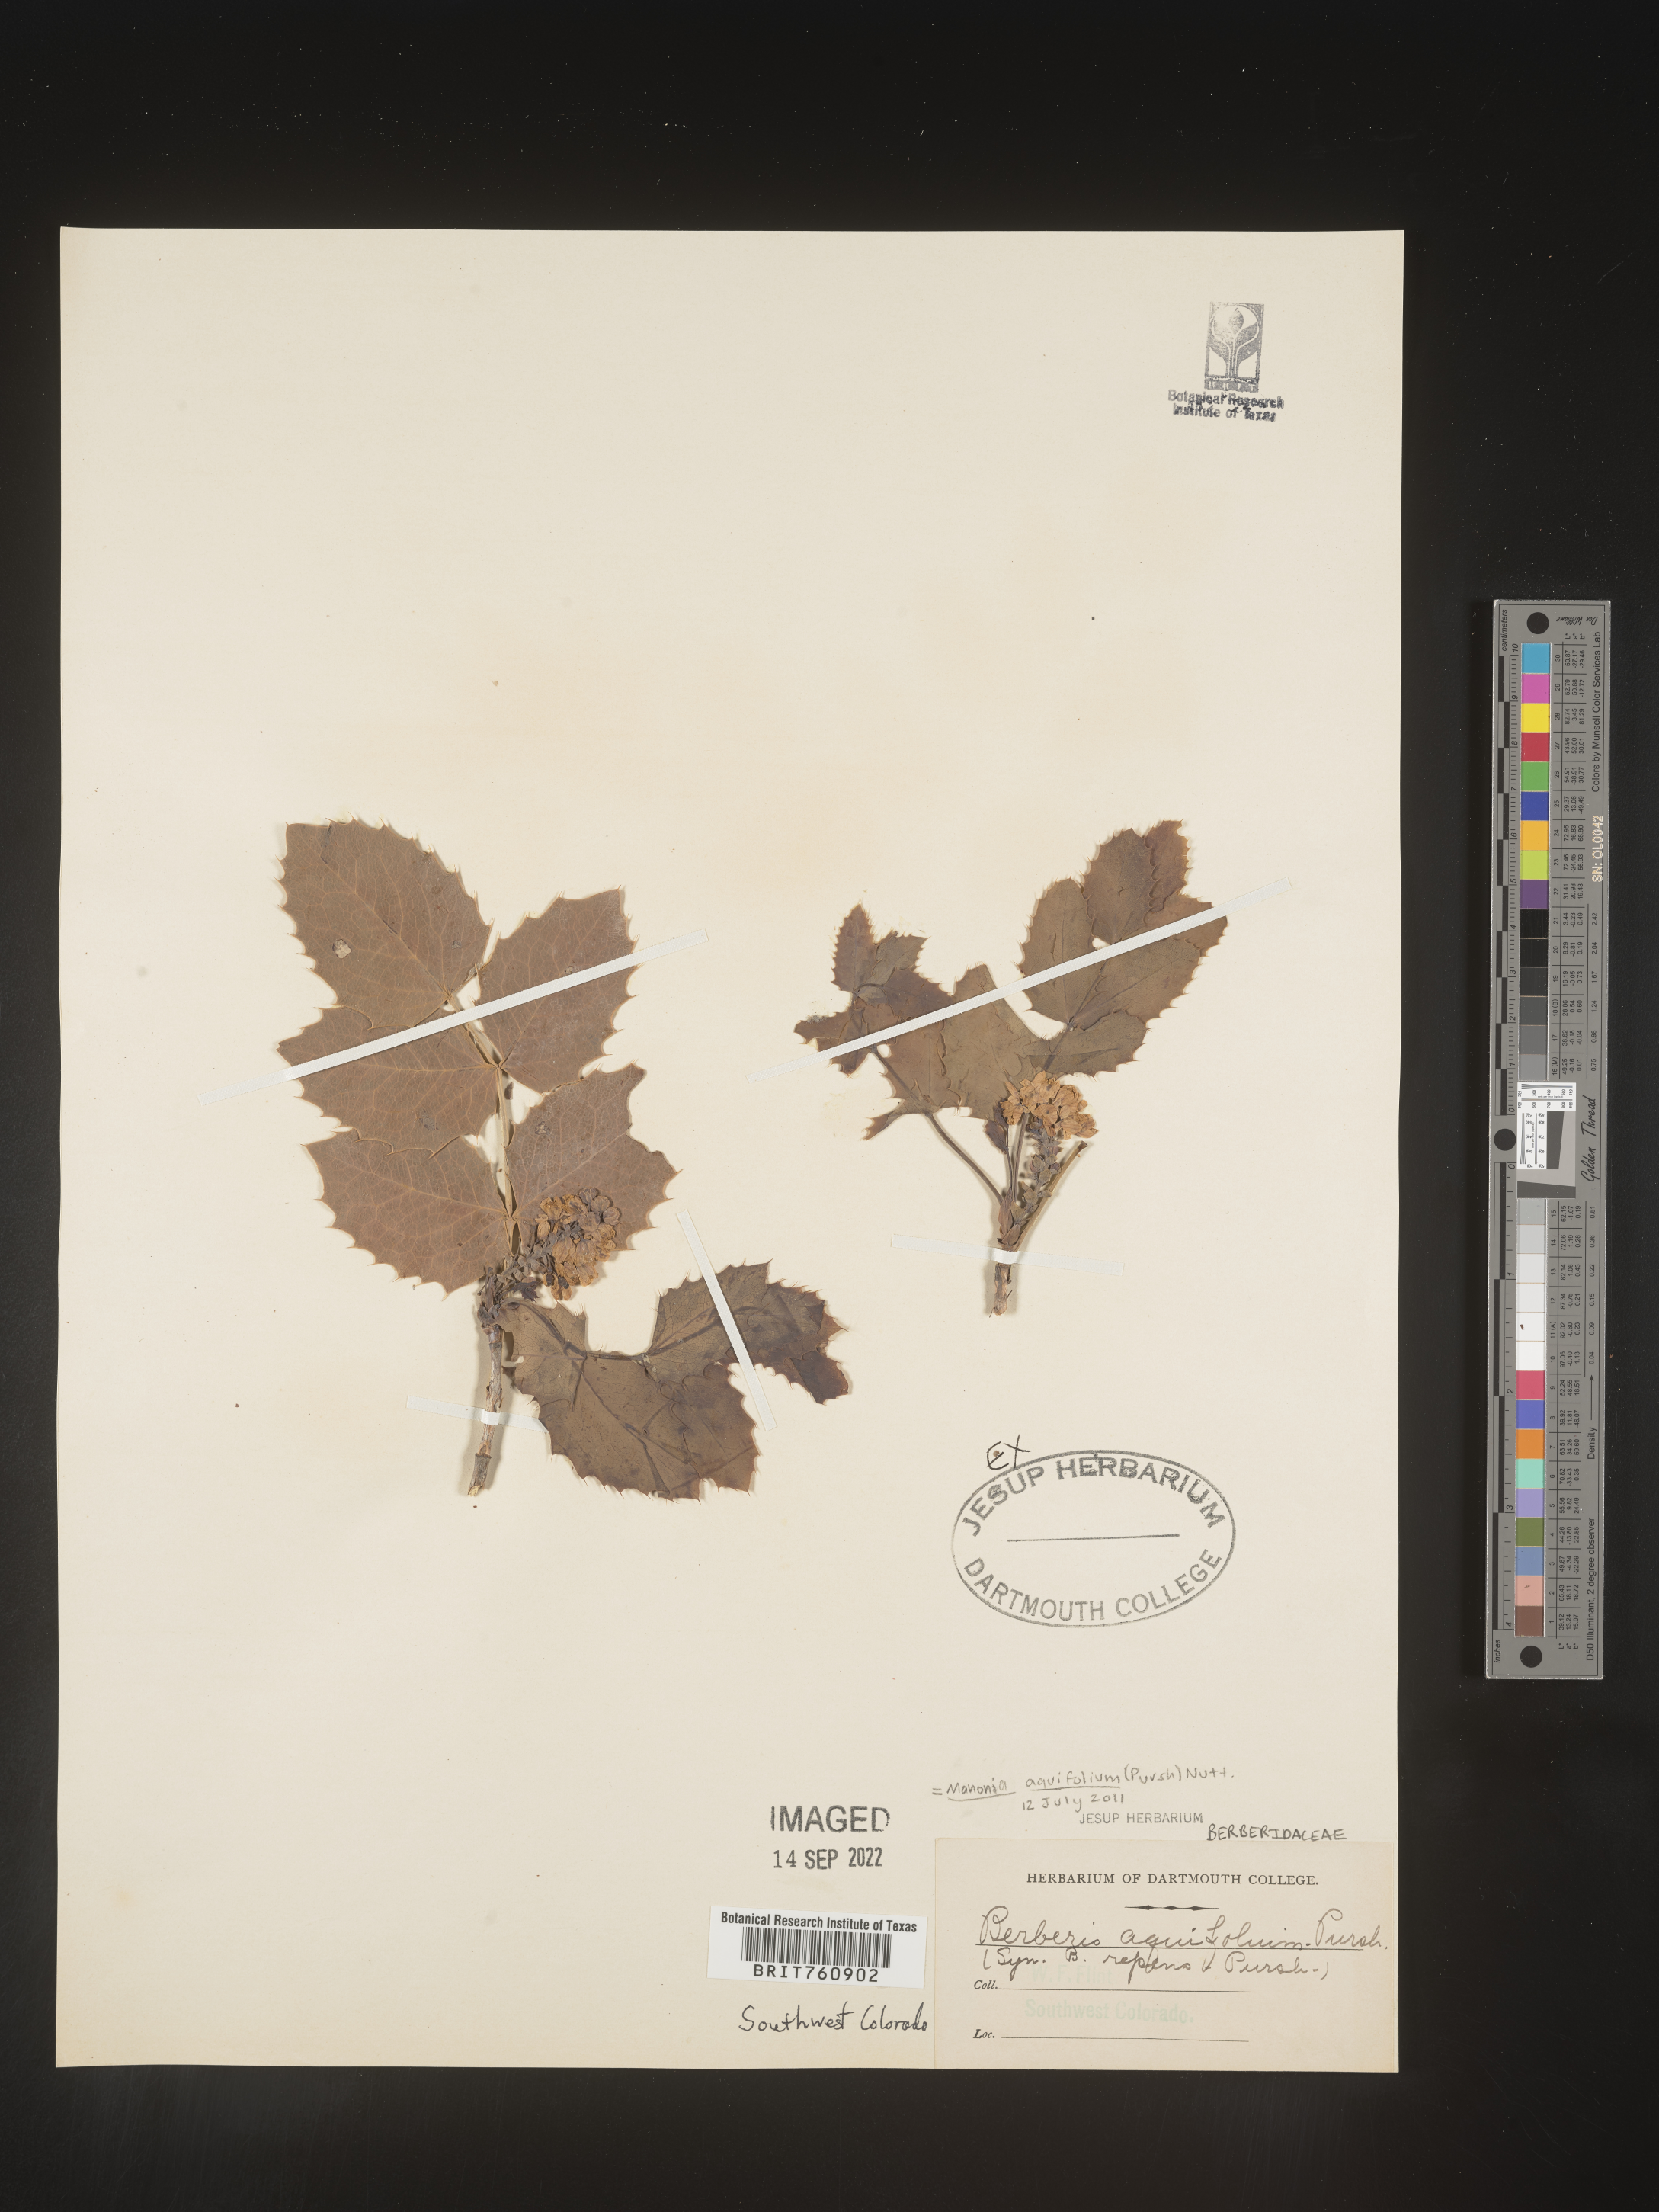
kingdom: Plantae
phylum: Tracheophyta
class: Magnoliopsida
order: Ranunculales
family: Berberidaceae
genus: Mahonia
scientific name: Mahonia aquifolium
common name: Oregon-grape
